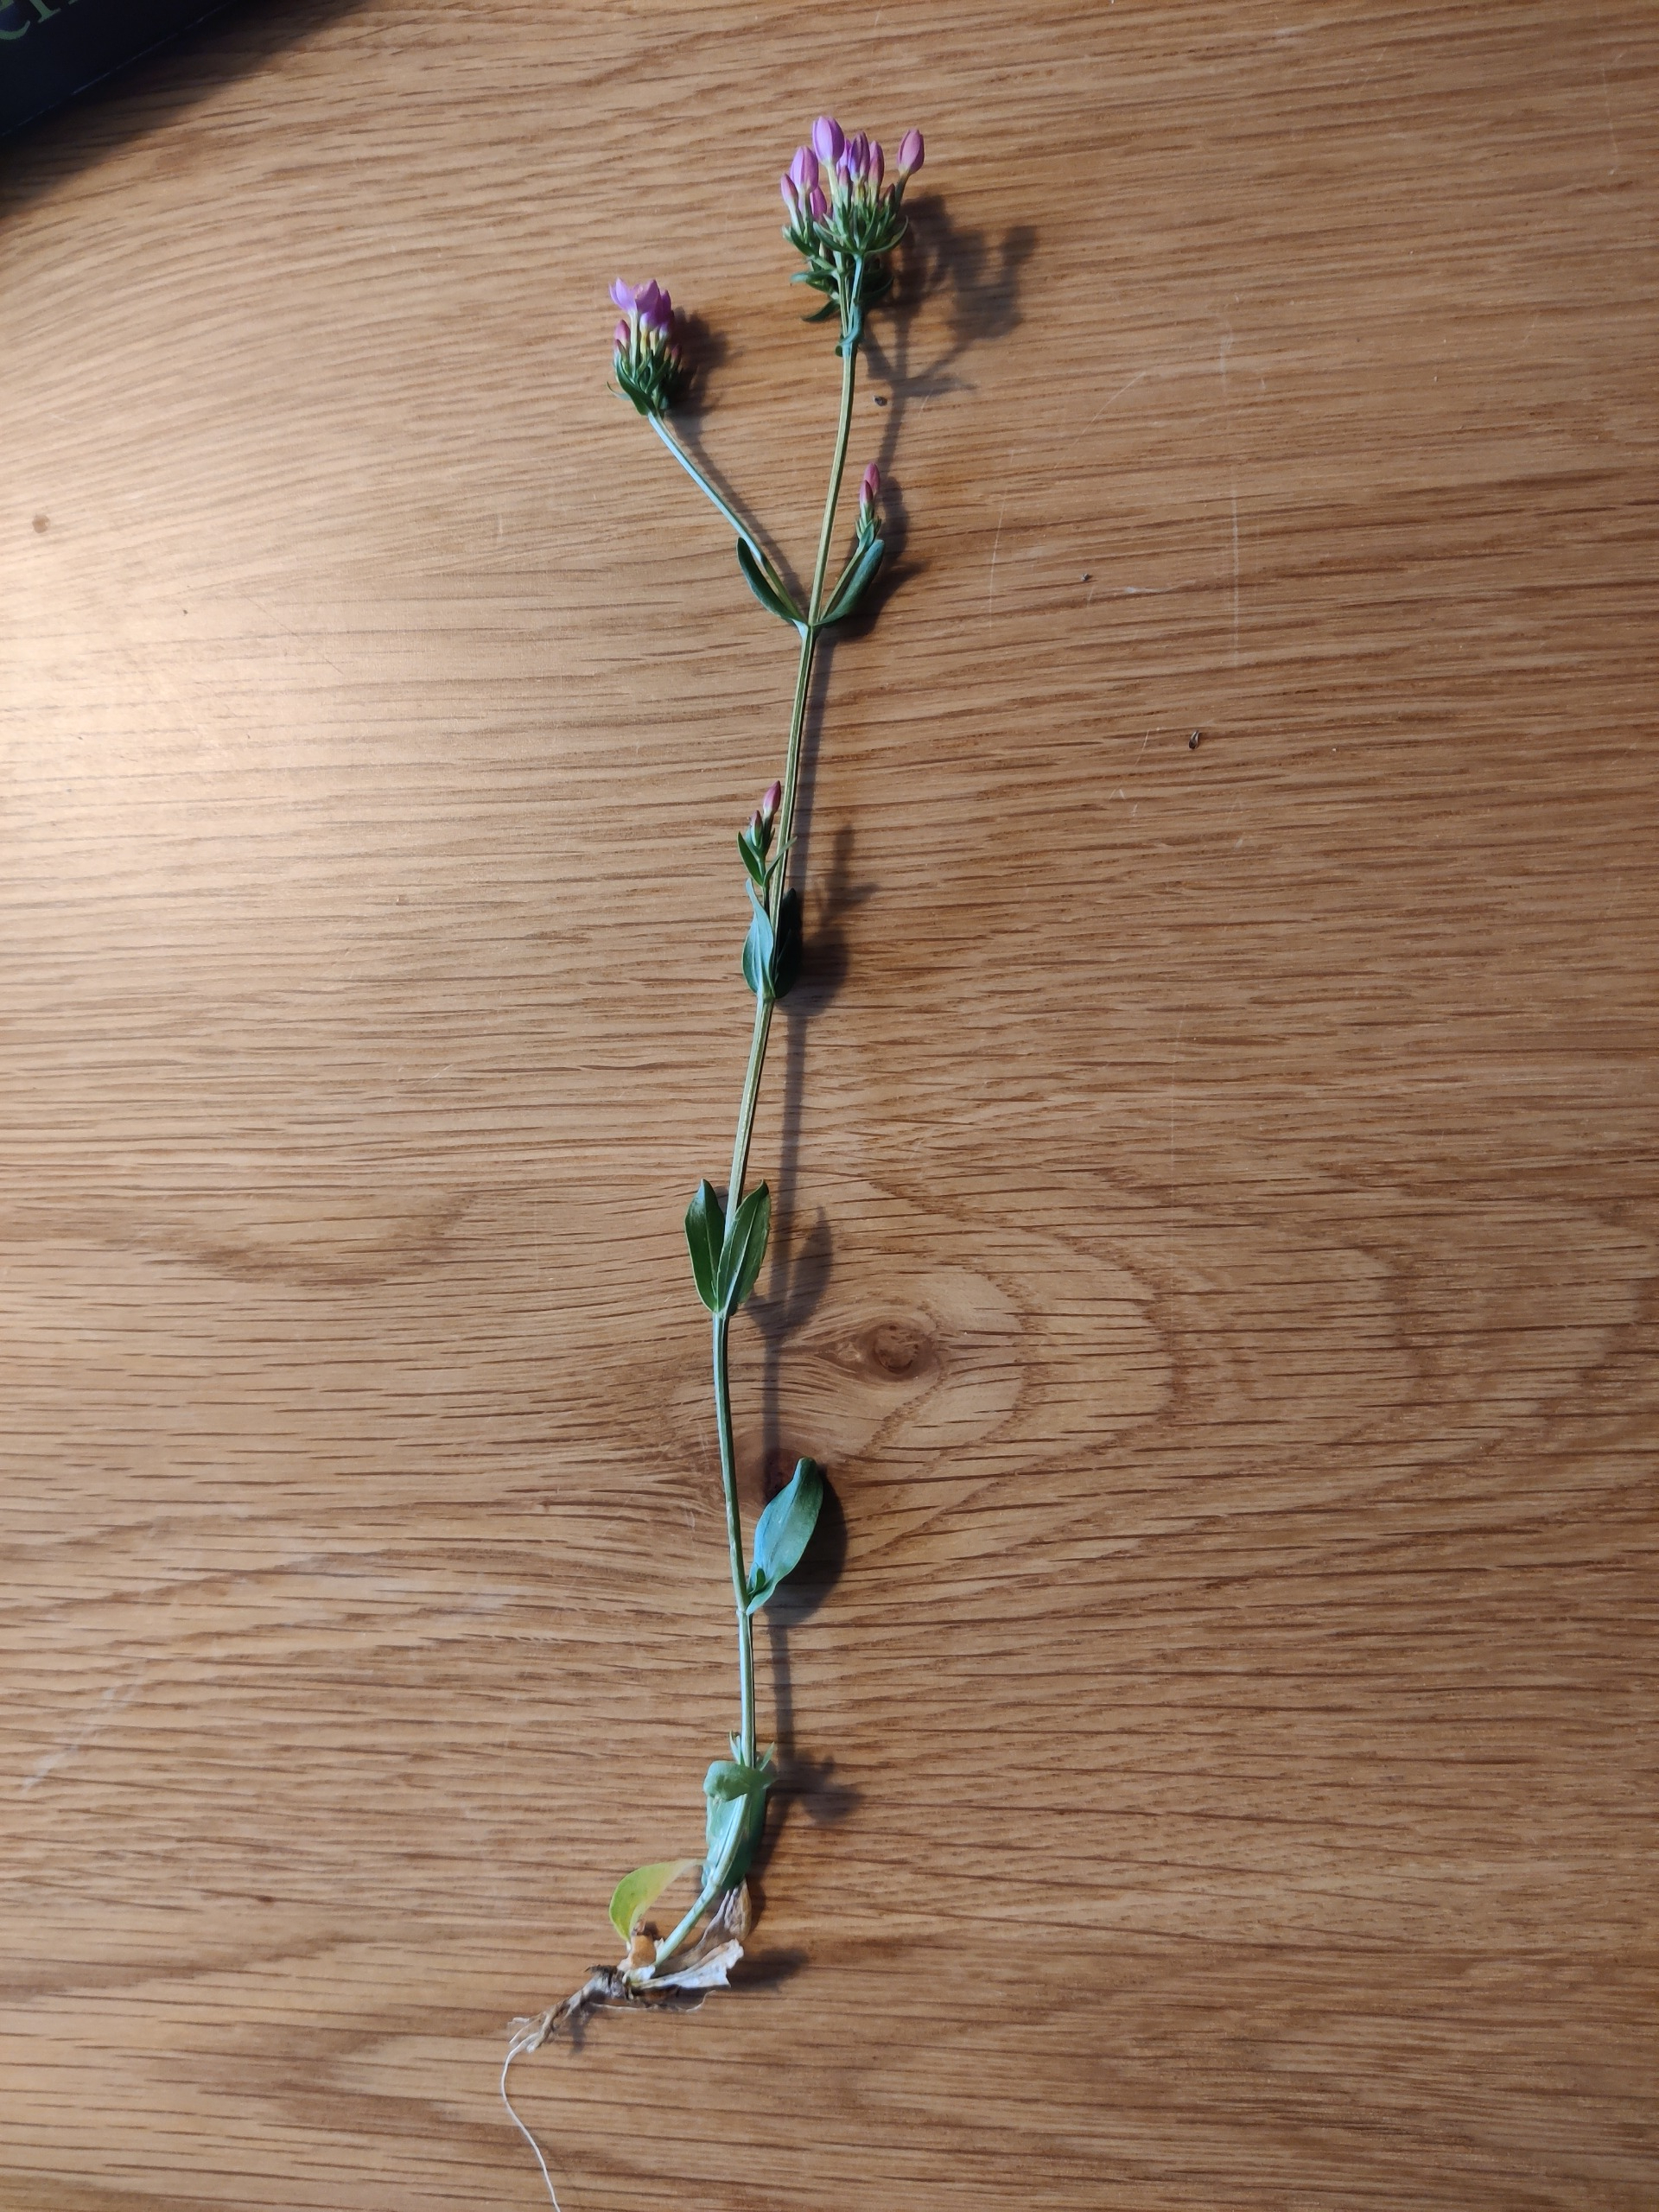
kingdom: Plantae
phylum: Tracheophyta
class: Magnoliopsida
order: Gentianales
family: Gentianaceae
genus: Centaurium
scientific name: Centaurium erythraea
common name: Mark-tusindgylden
